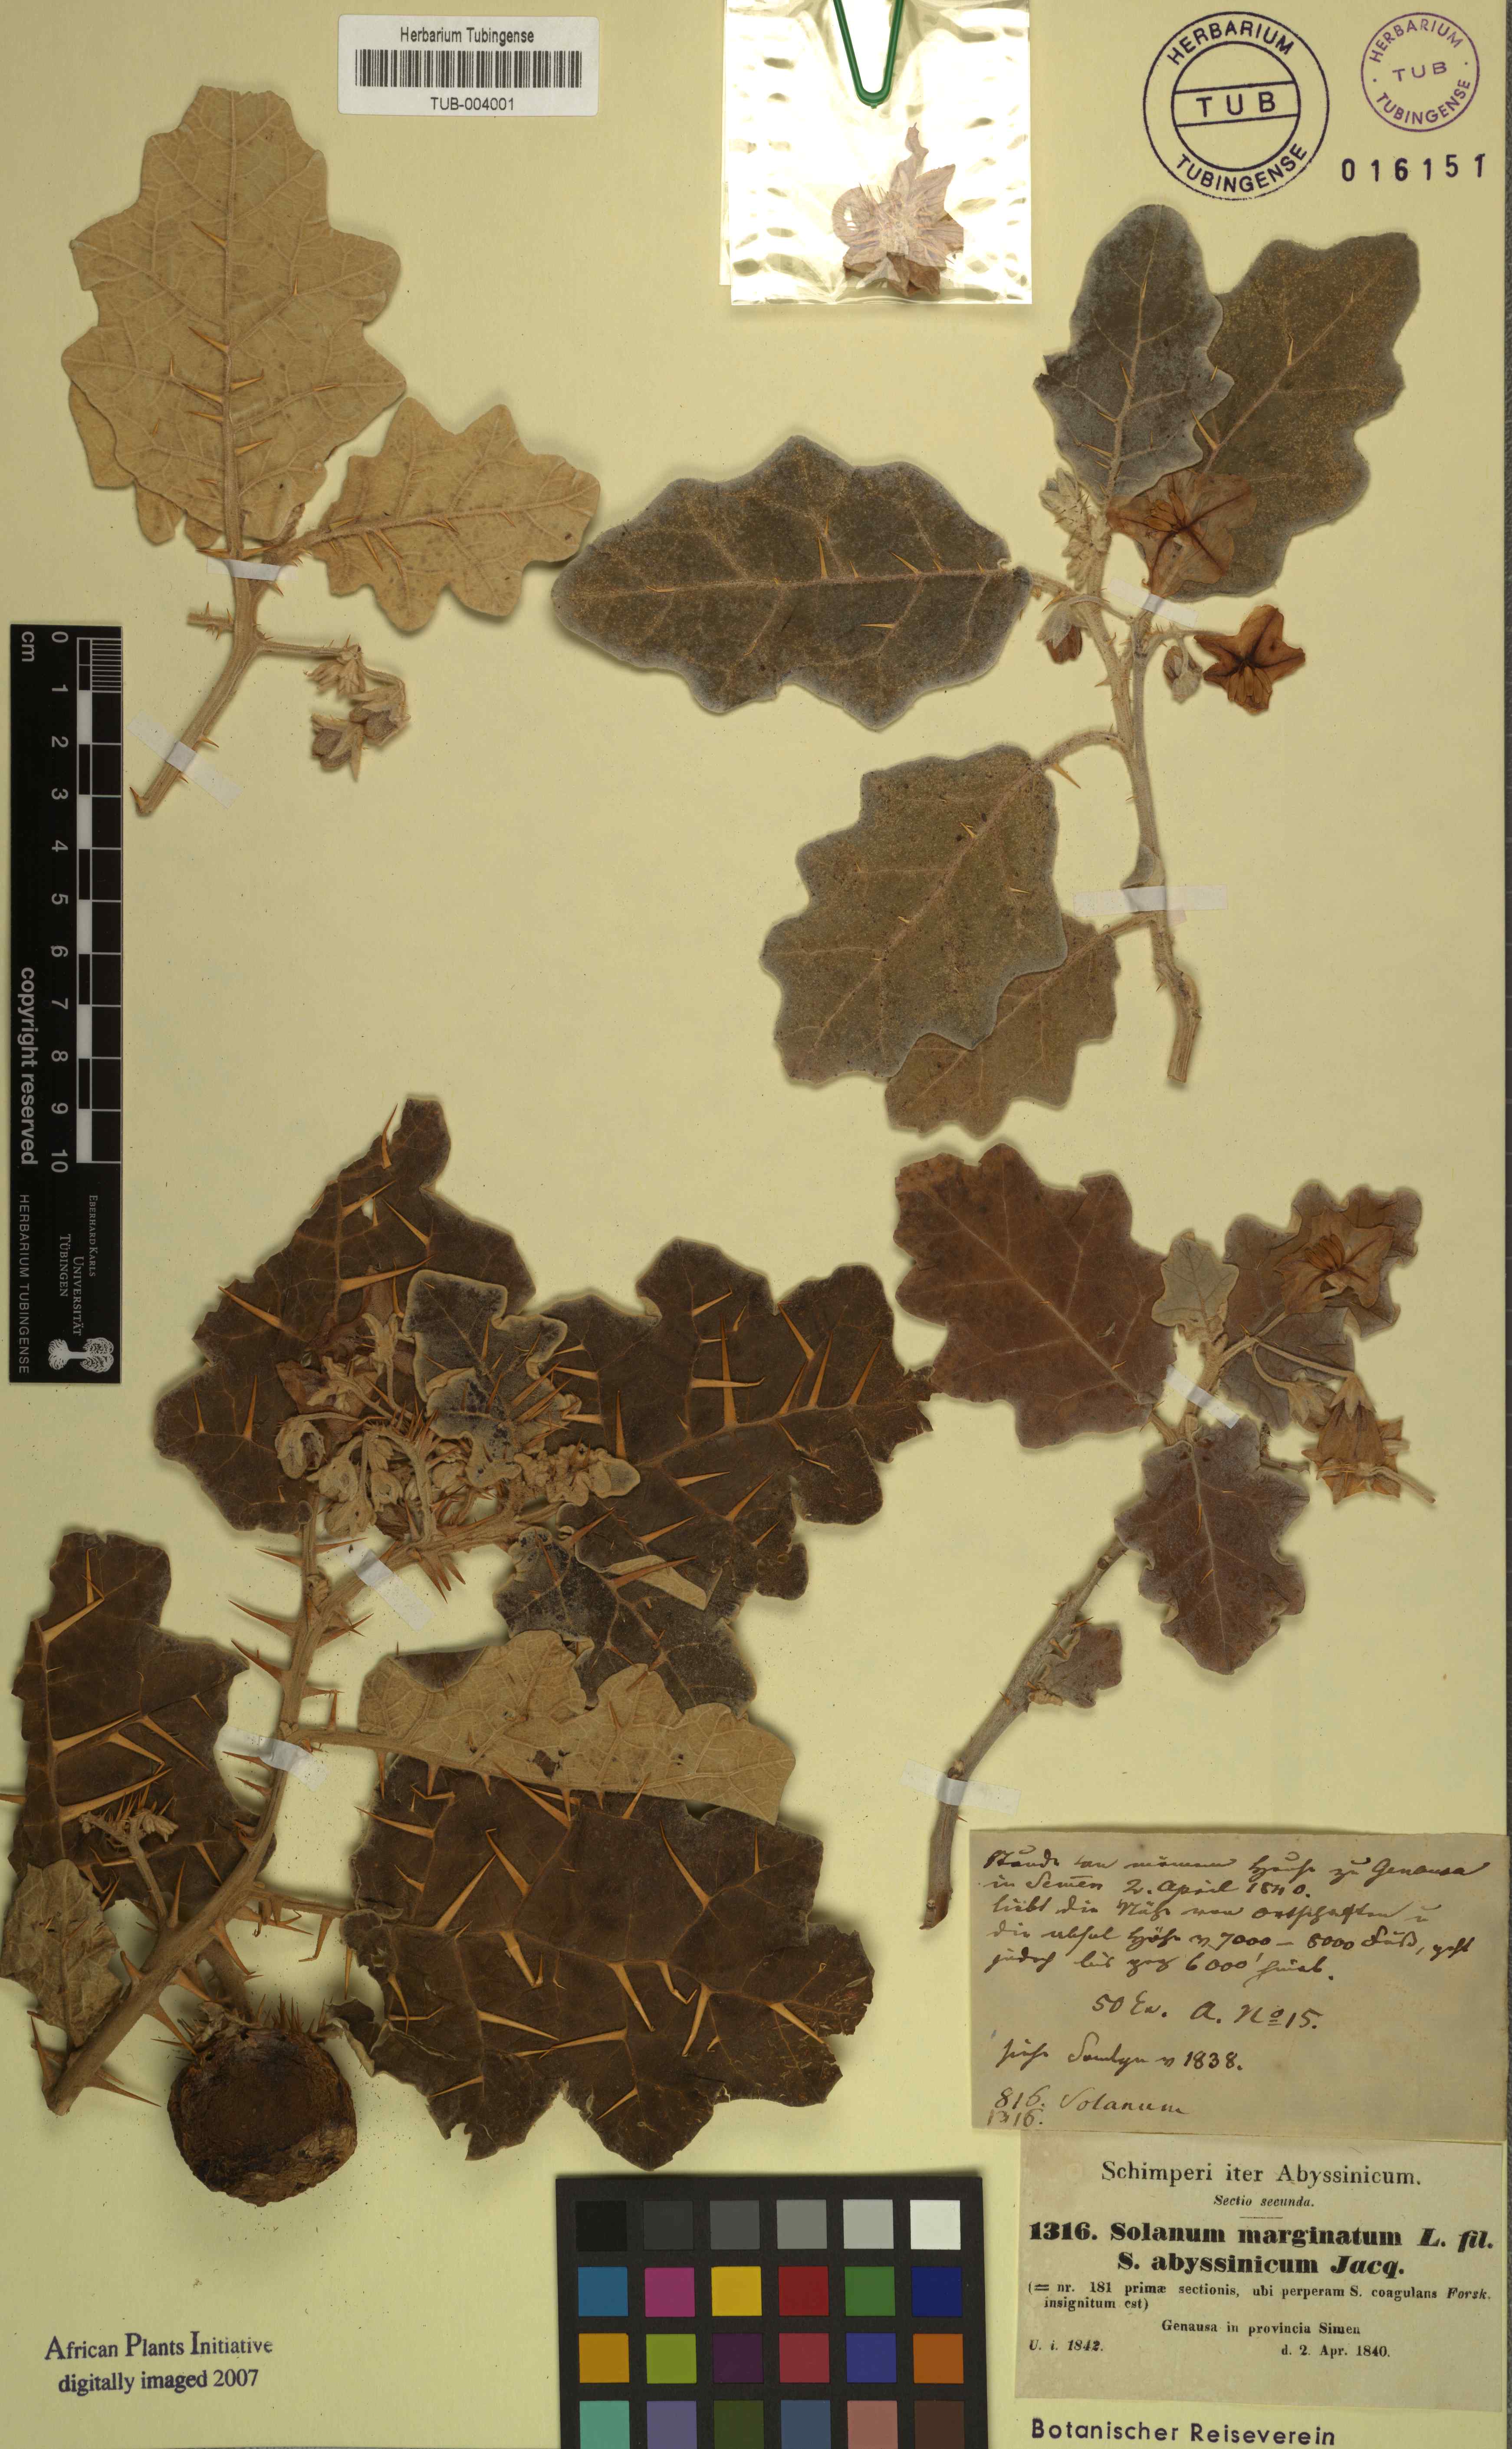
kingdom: Plantae
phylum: Tracheophyta
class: Magnoliopsida
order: Solanales
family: Solanaceae
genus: Solanum
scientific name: Solanum marginatum
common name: Purple african nightshade
